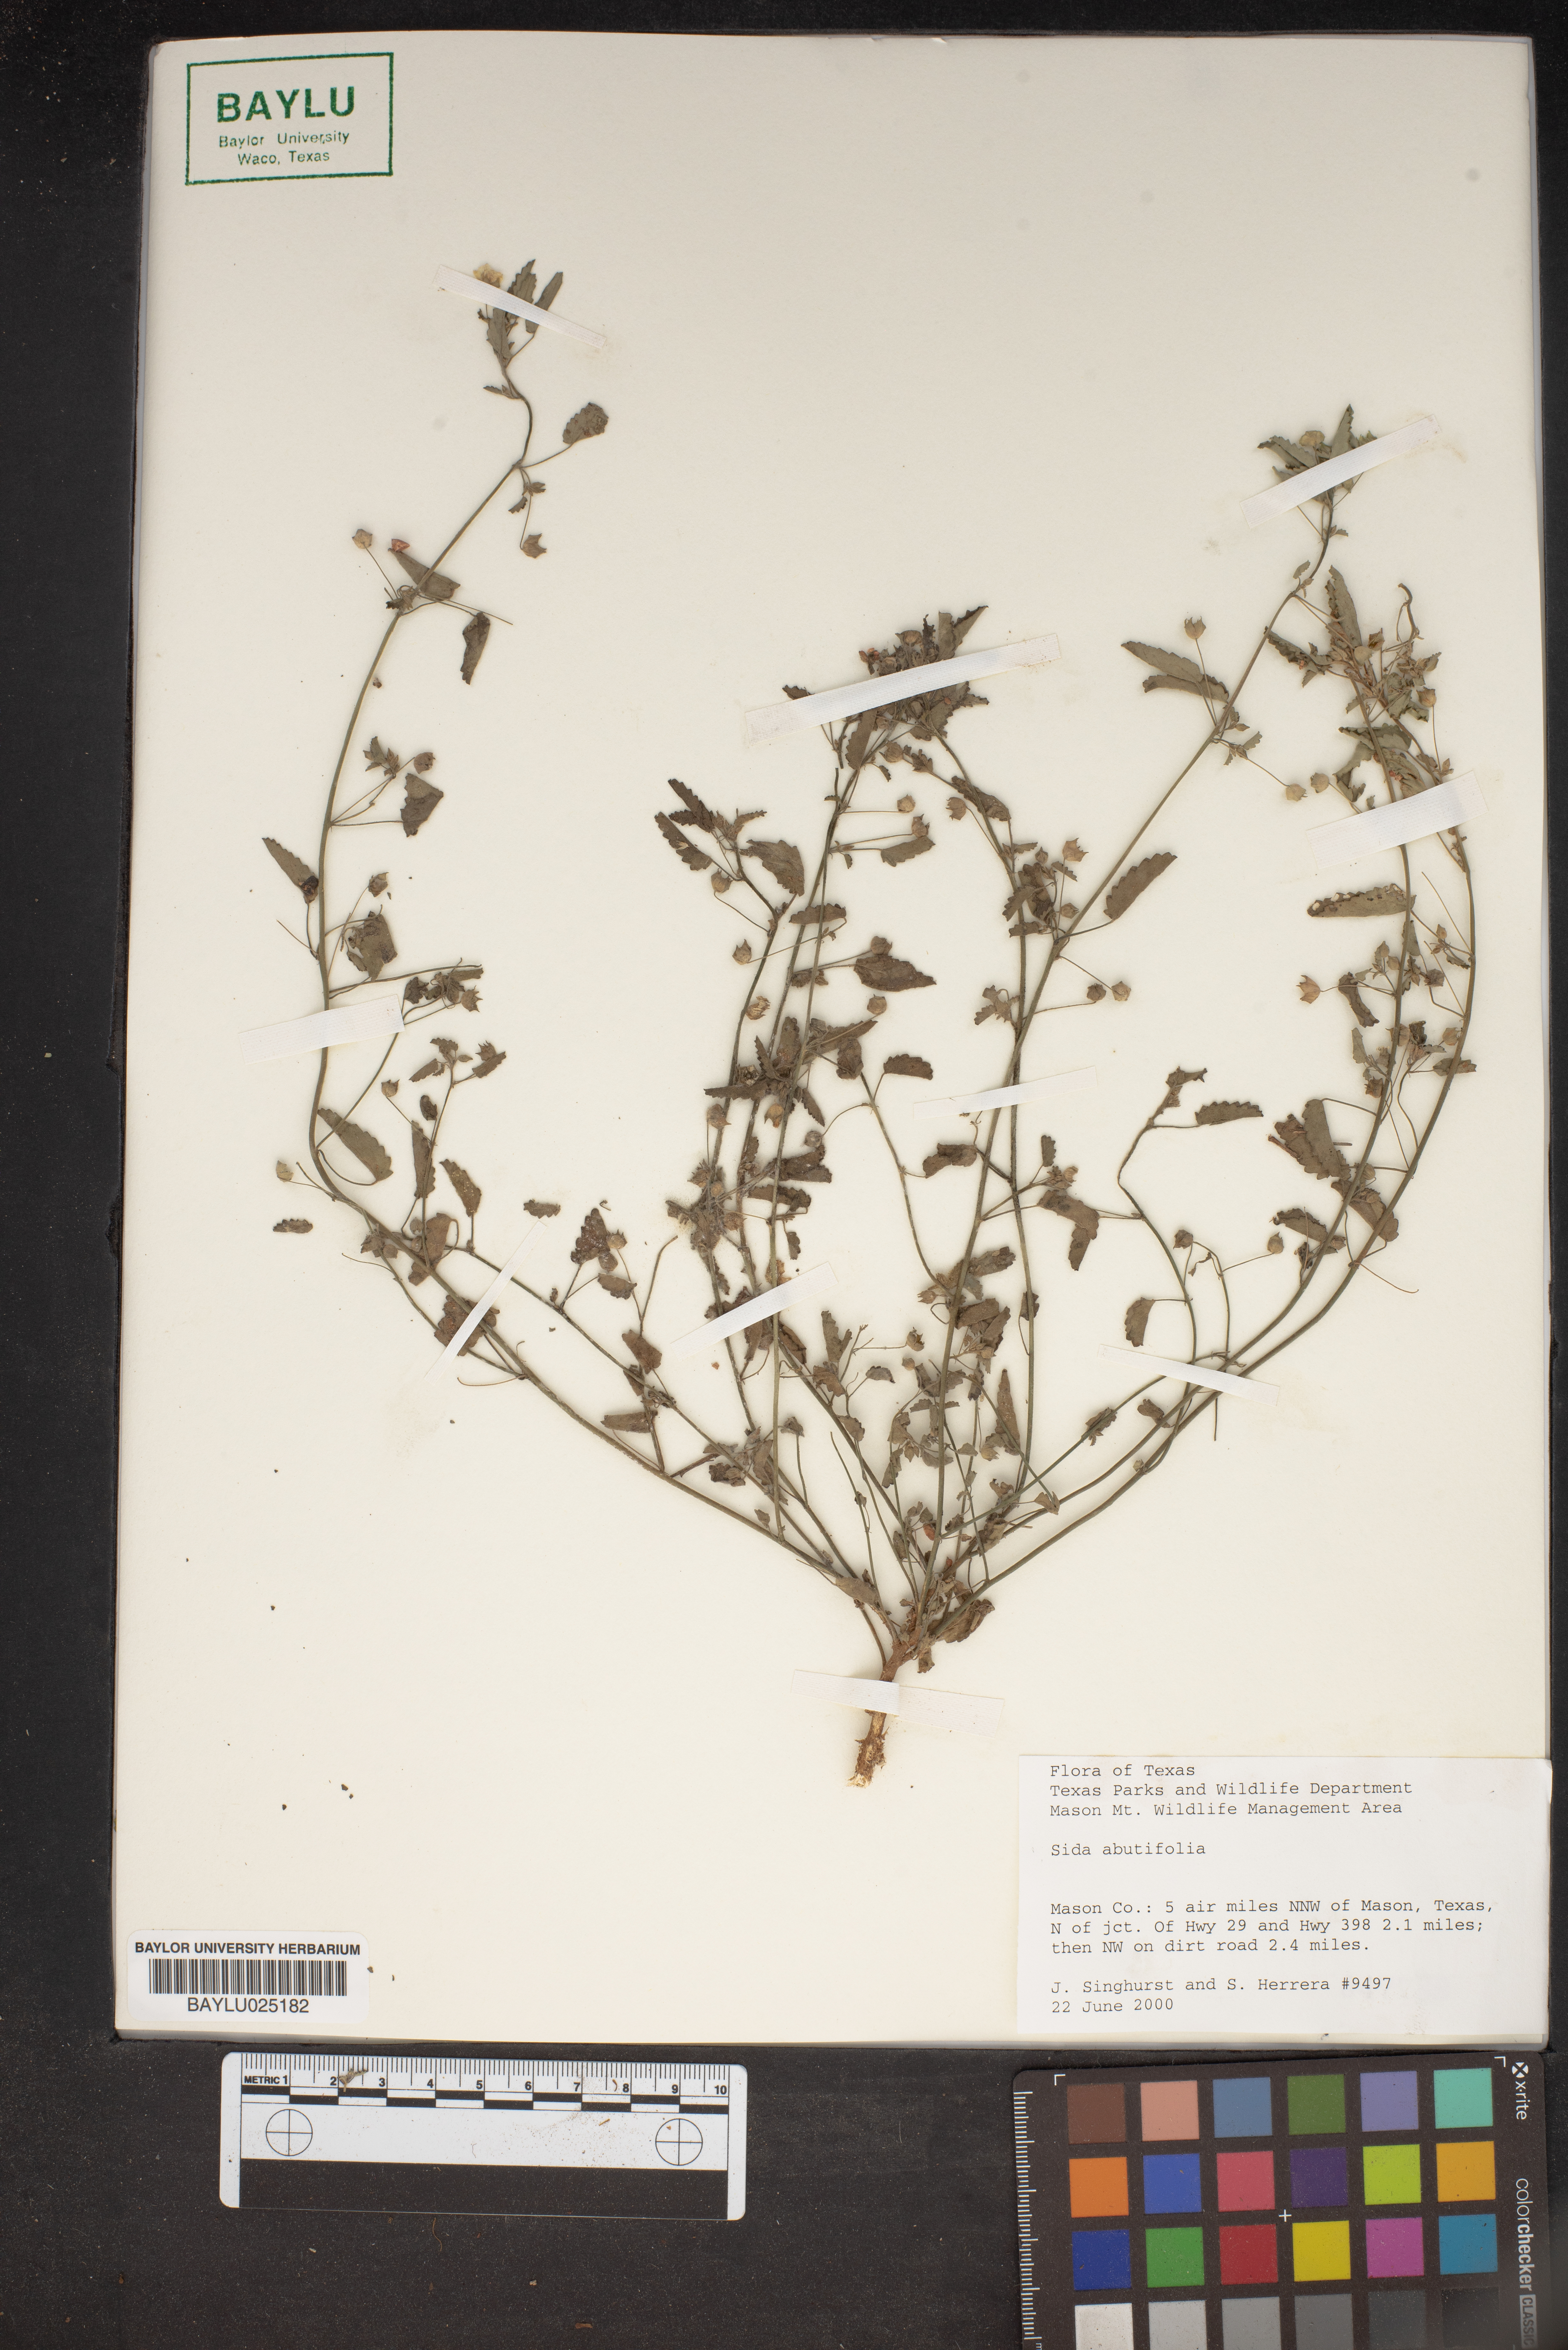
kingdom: Plantae
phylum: Tracheophyta
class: Magnoliopsida
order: Malvales
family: Malvaceae
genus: Sida
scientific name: Sida abutifolia
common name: Spreading fantails
